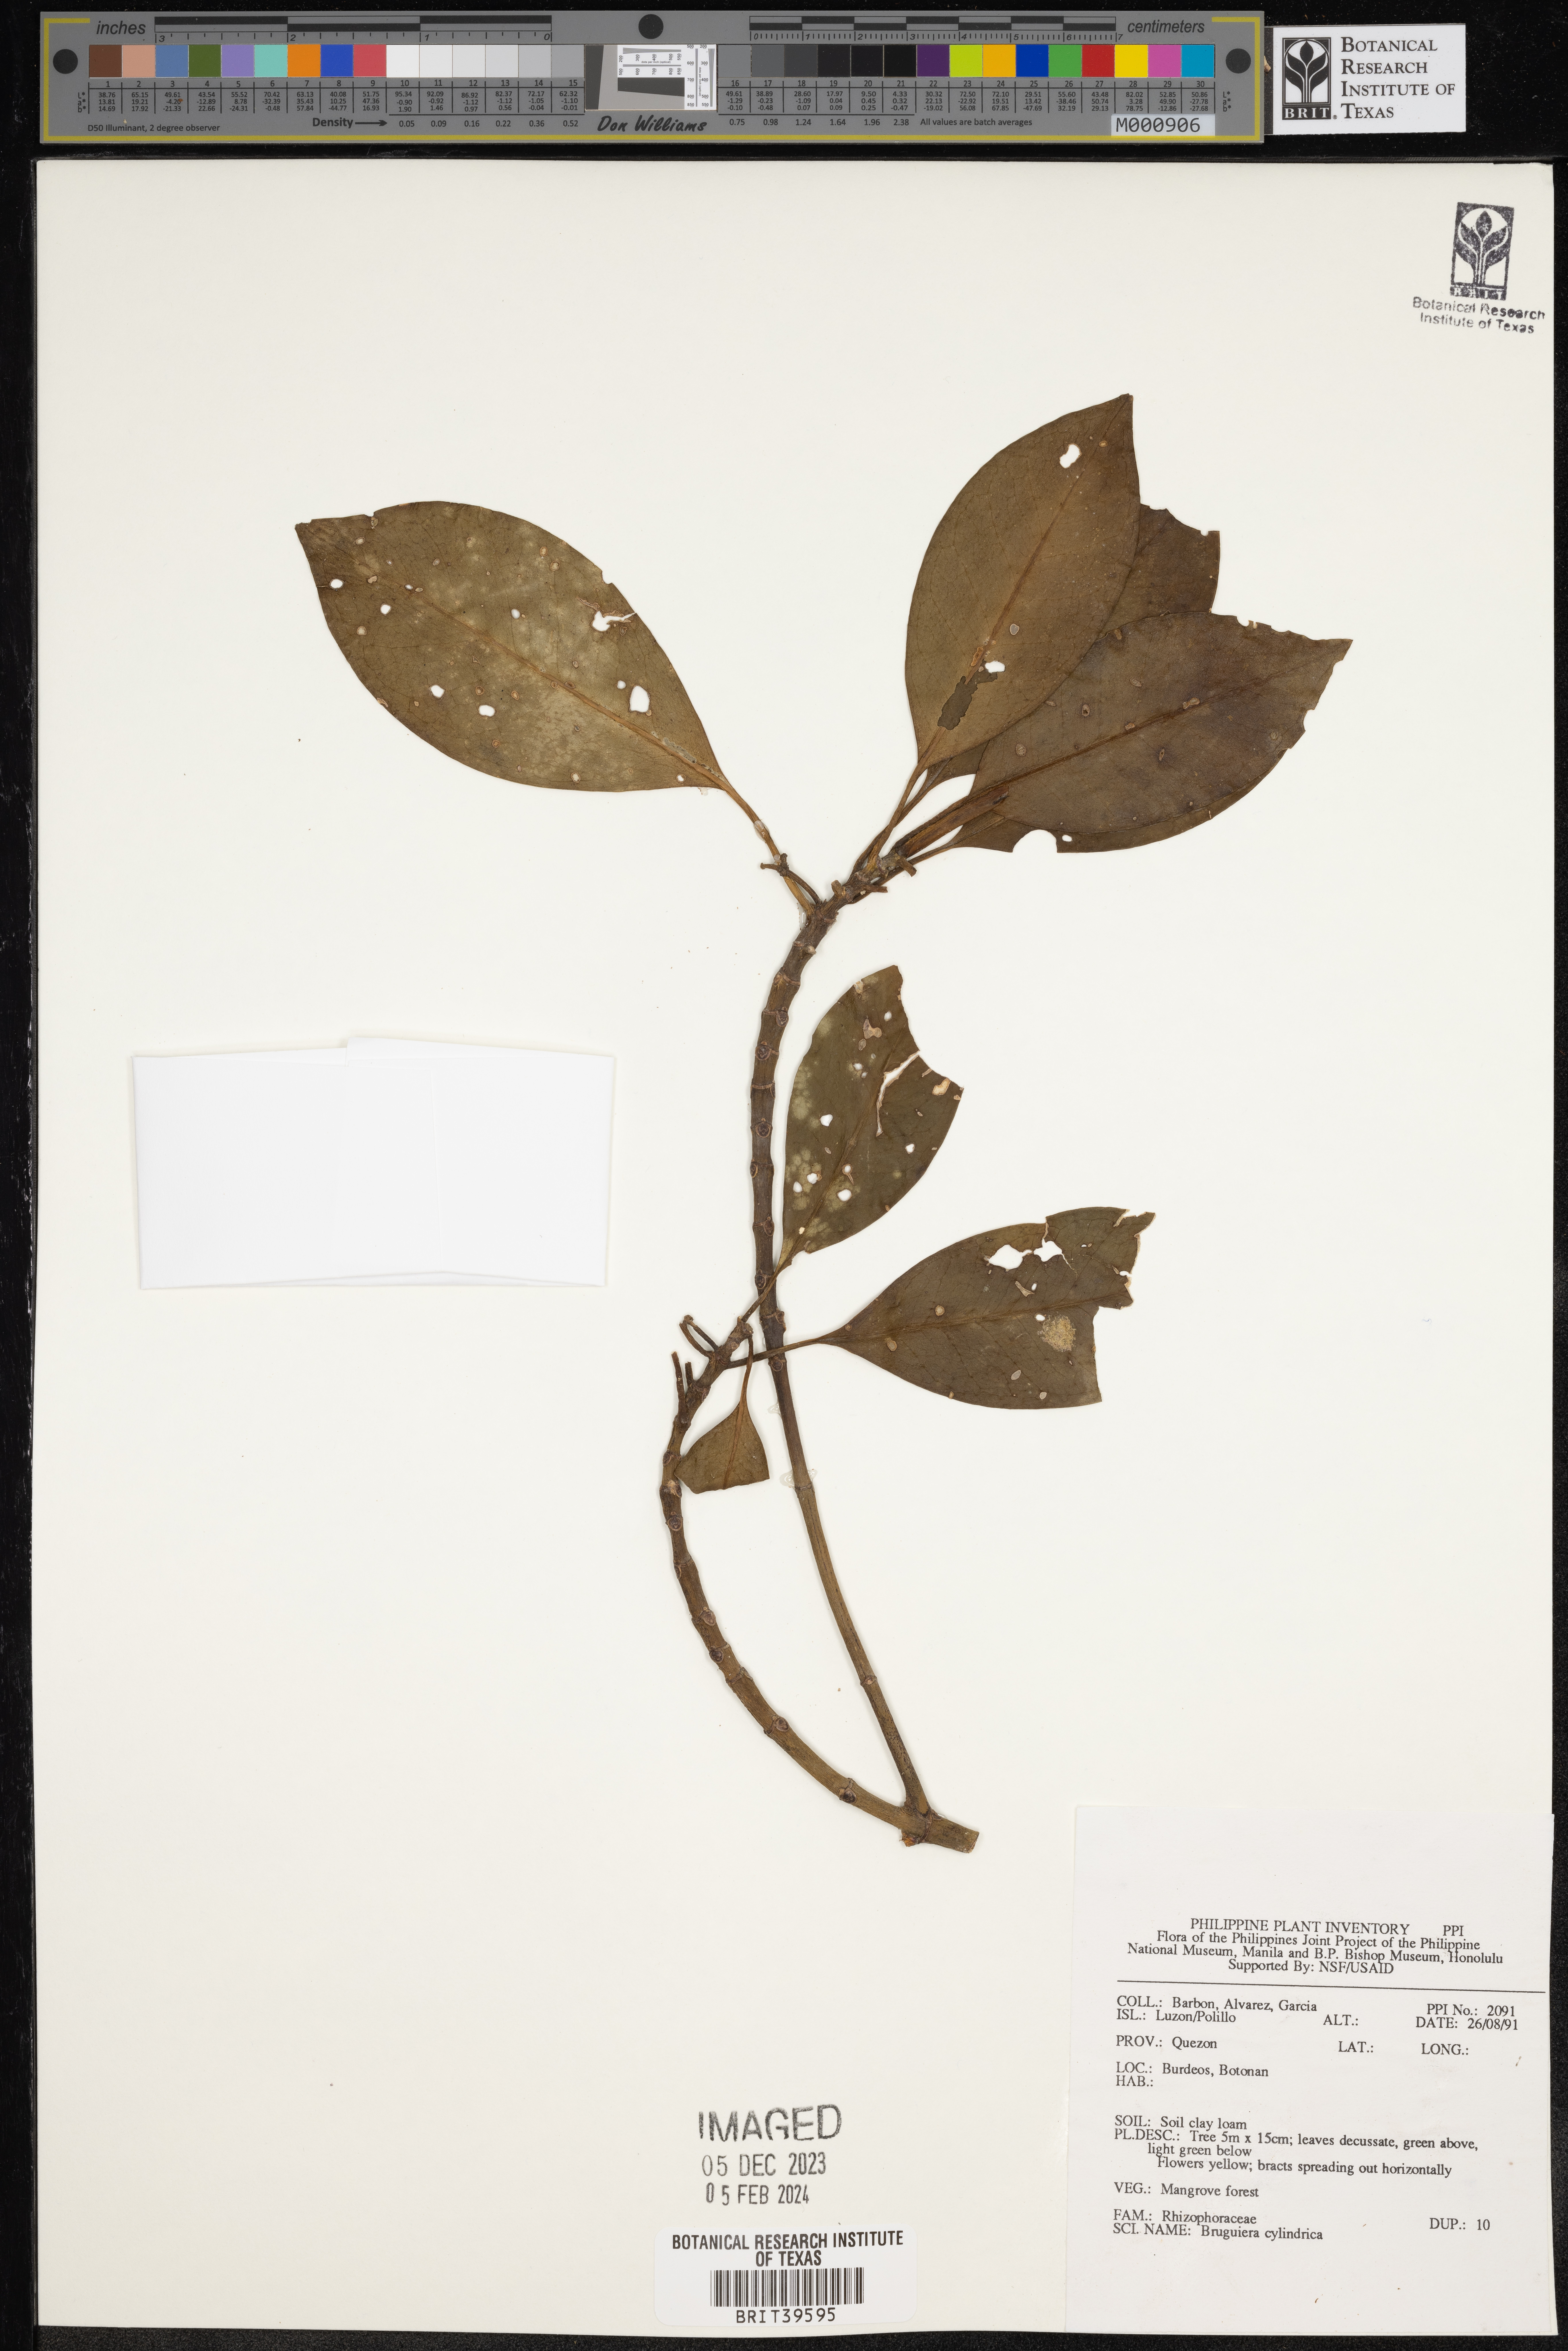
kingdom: Plantae
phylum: Tracheophyta
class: Magnoliopsida
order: Malpighiales
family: Rhizophoraceae
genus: Bruguiera
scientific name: Bruguiera cylindrica
